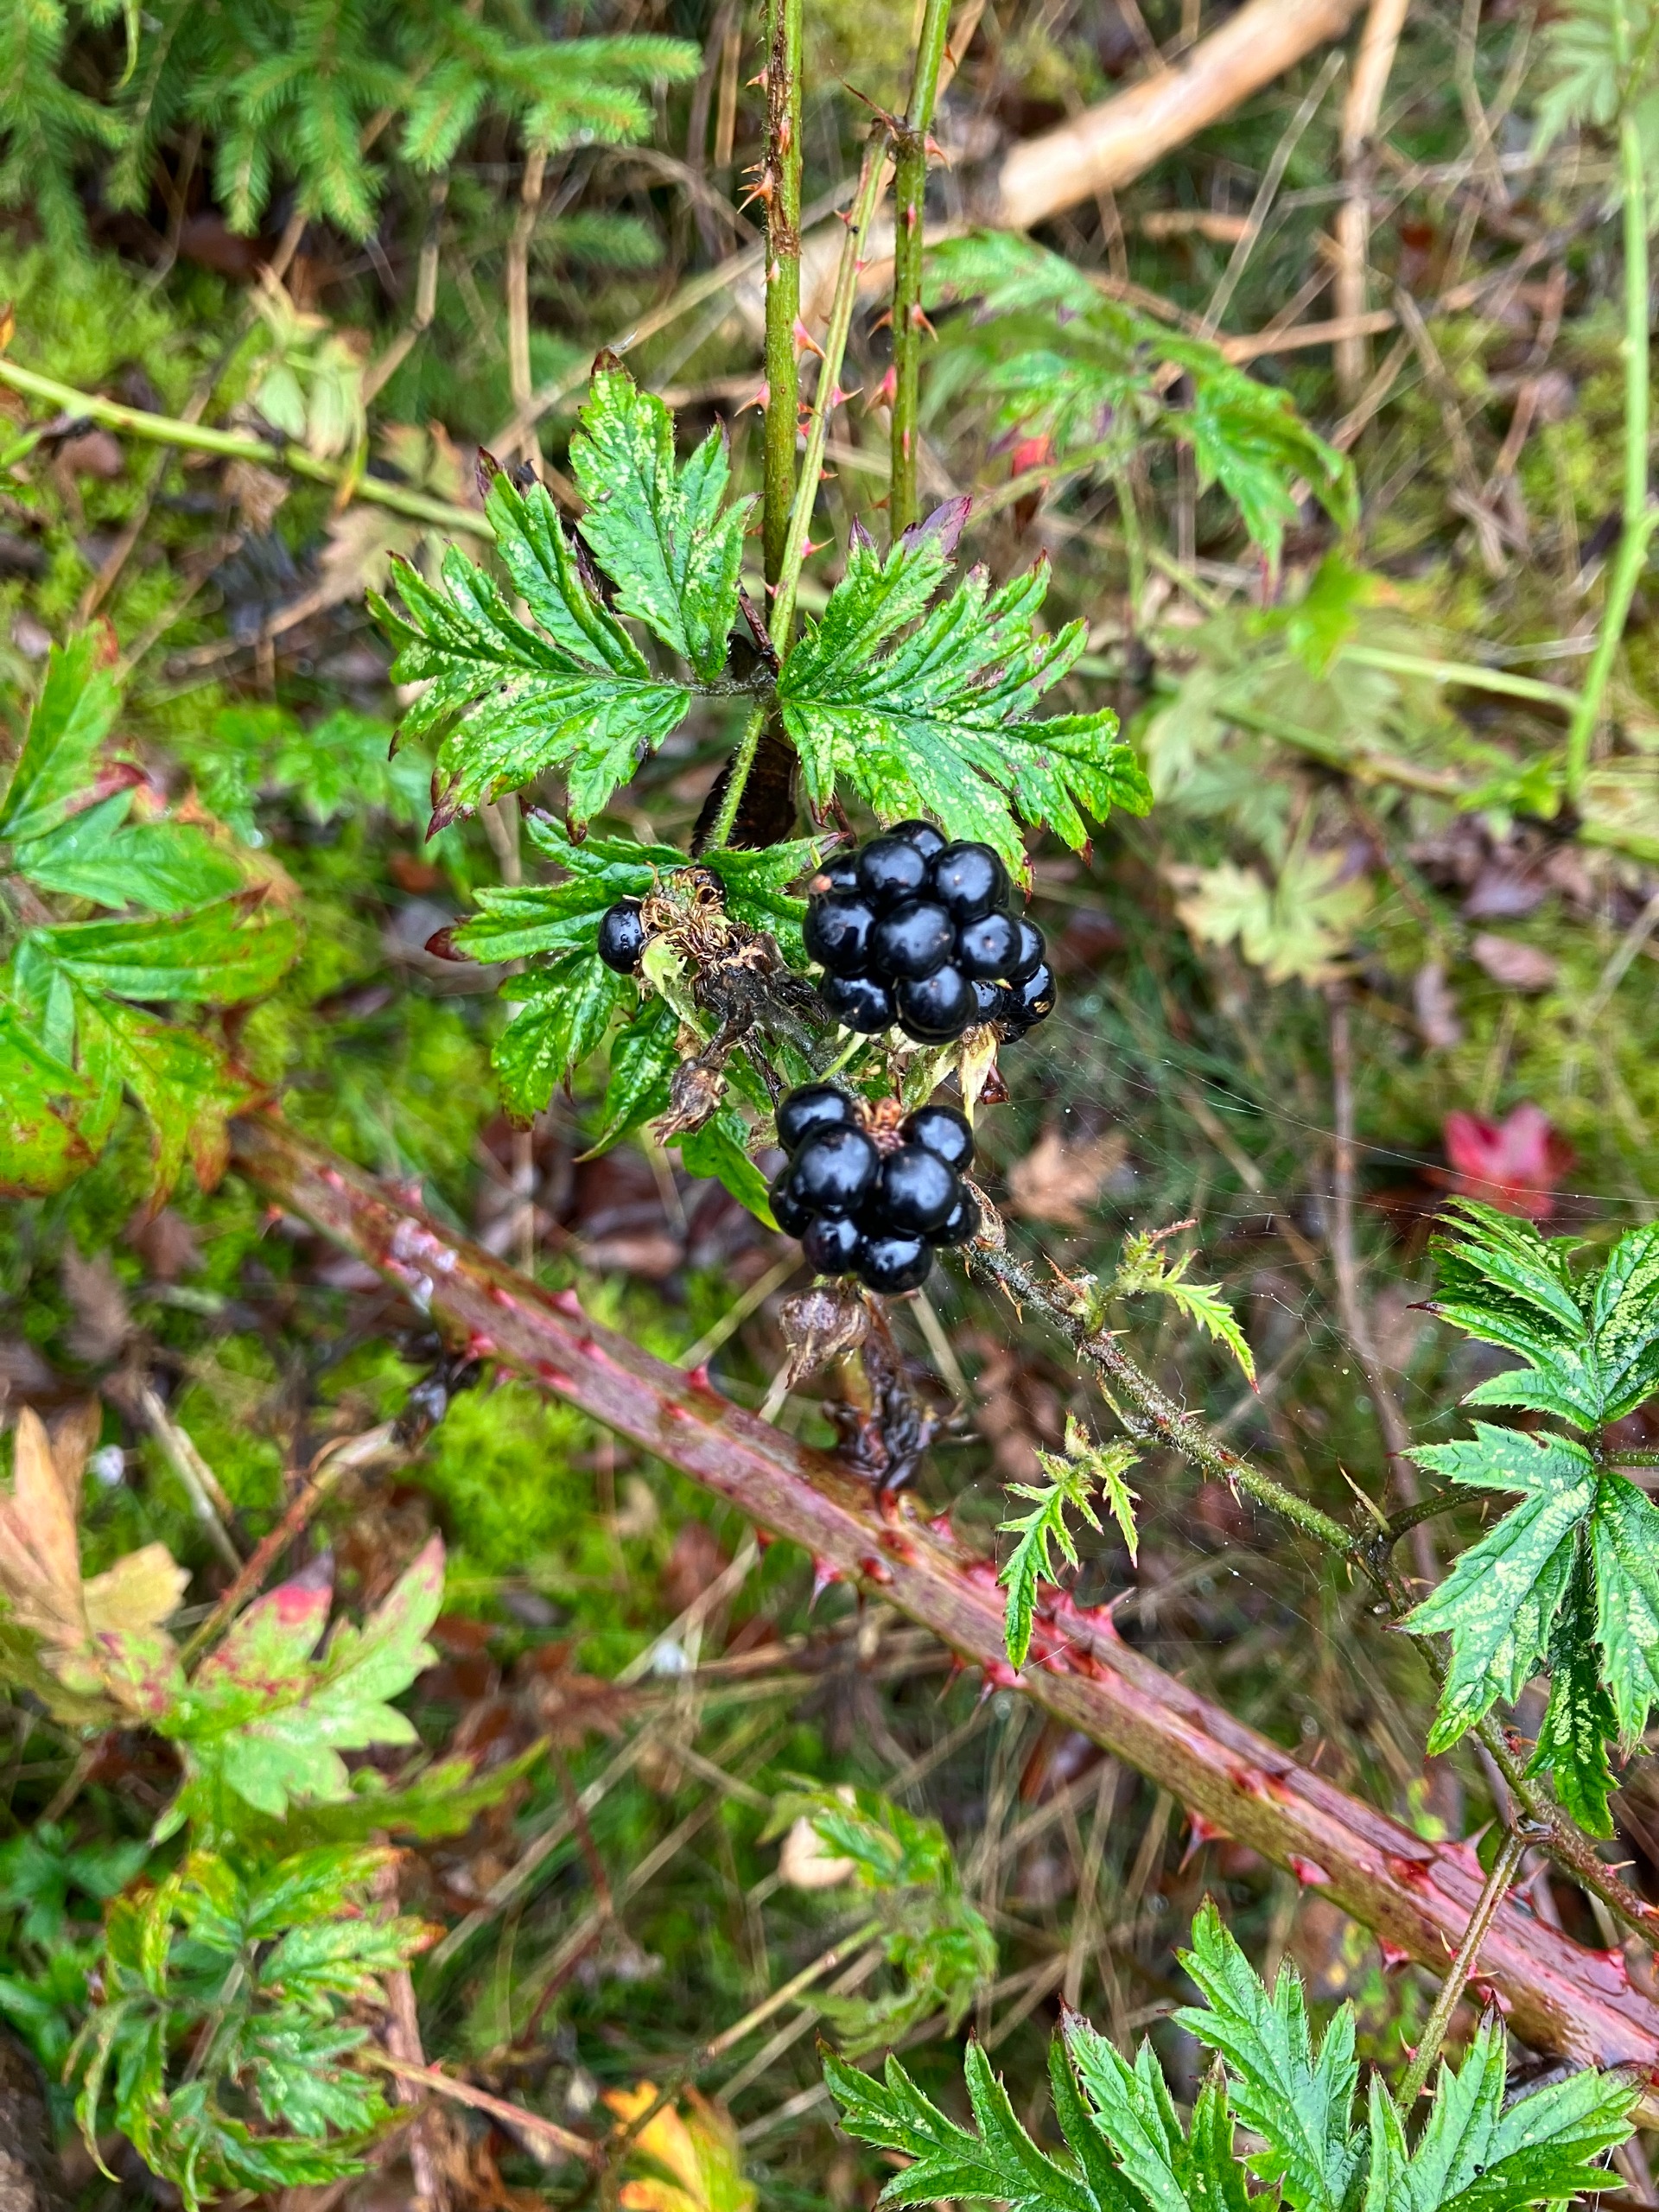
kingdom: Plantae
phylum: Tracheophyta
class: Magnoliopsida
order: Rosales
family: Rosaceae
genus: Rubus
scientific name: Rubus laciniatus
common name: Fliget brombær
